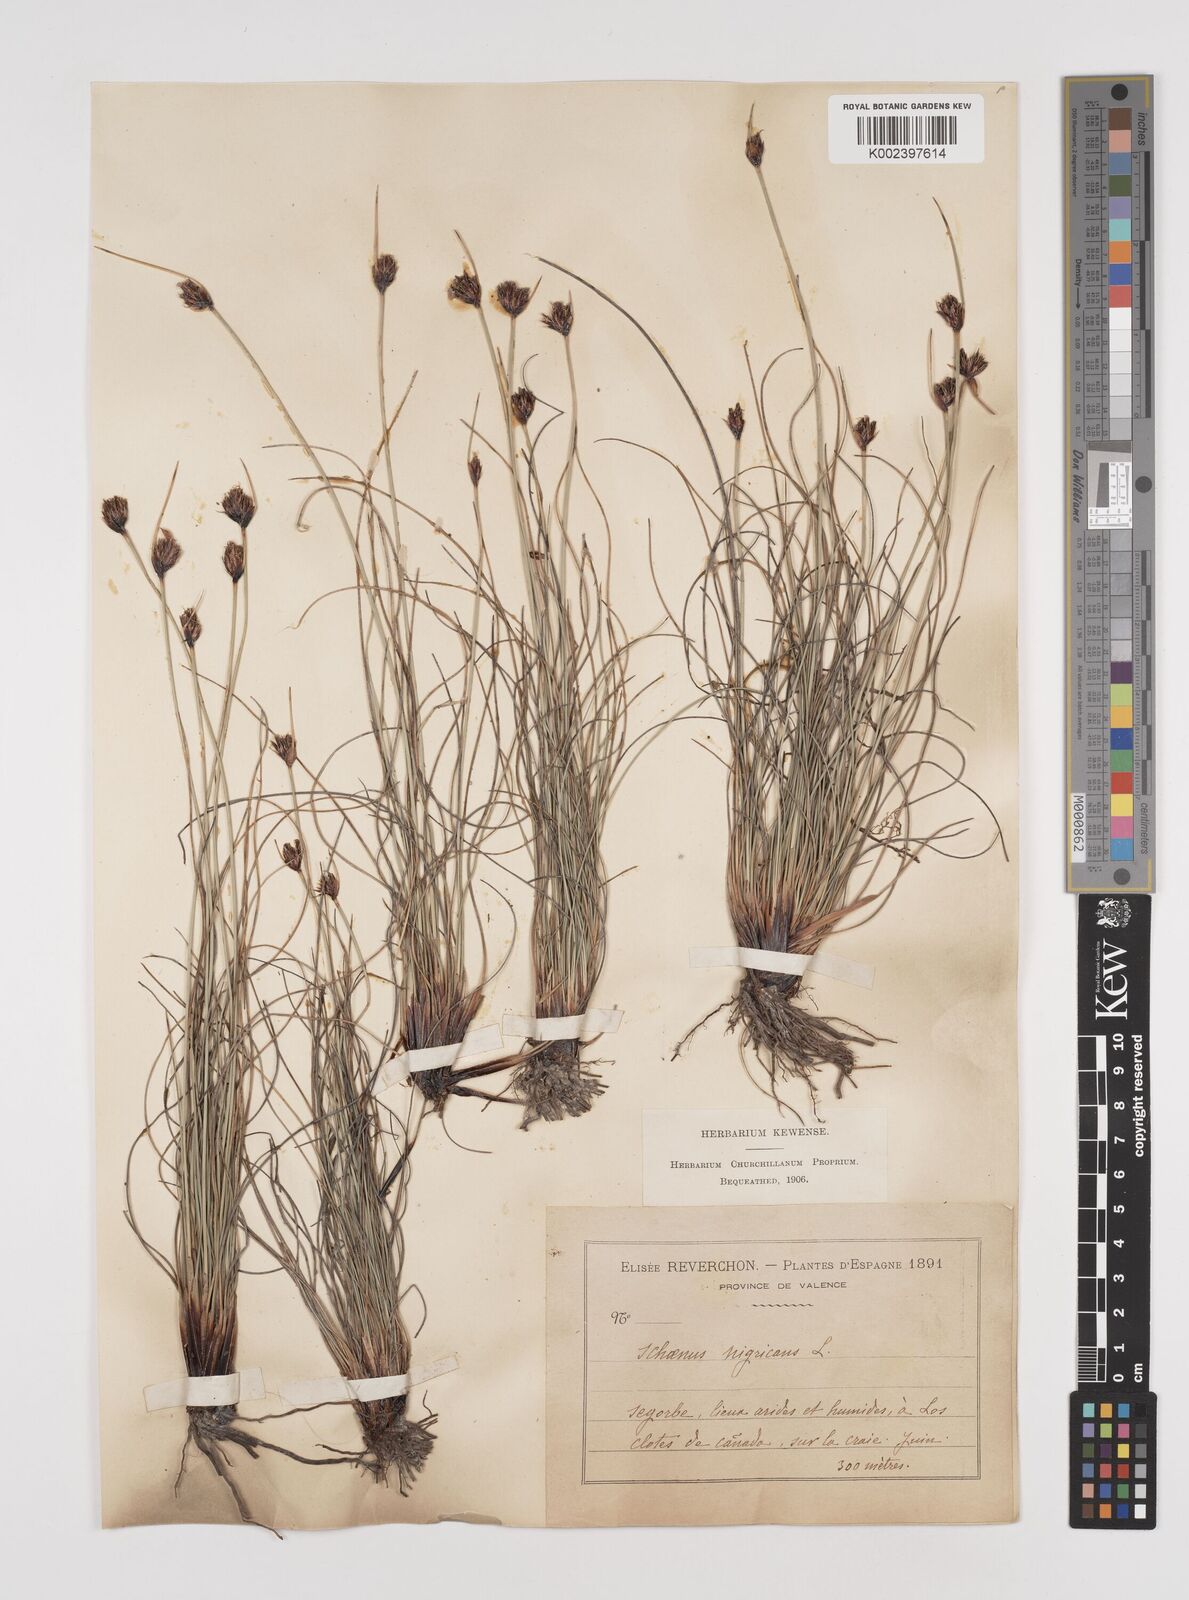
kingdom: Plantae
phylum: Tracheophyta
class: Liliopsida
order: Poales
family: Cyperaceae
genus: Schoenus
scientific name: Schoenus nigricans
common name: Black bog-rush
